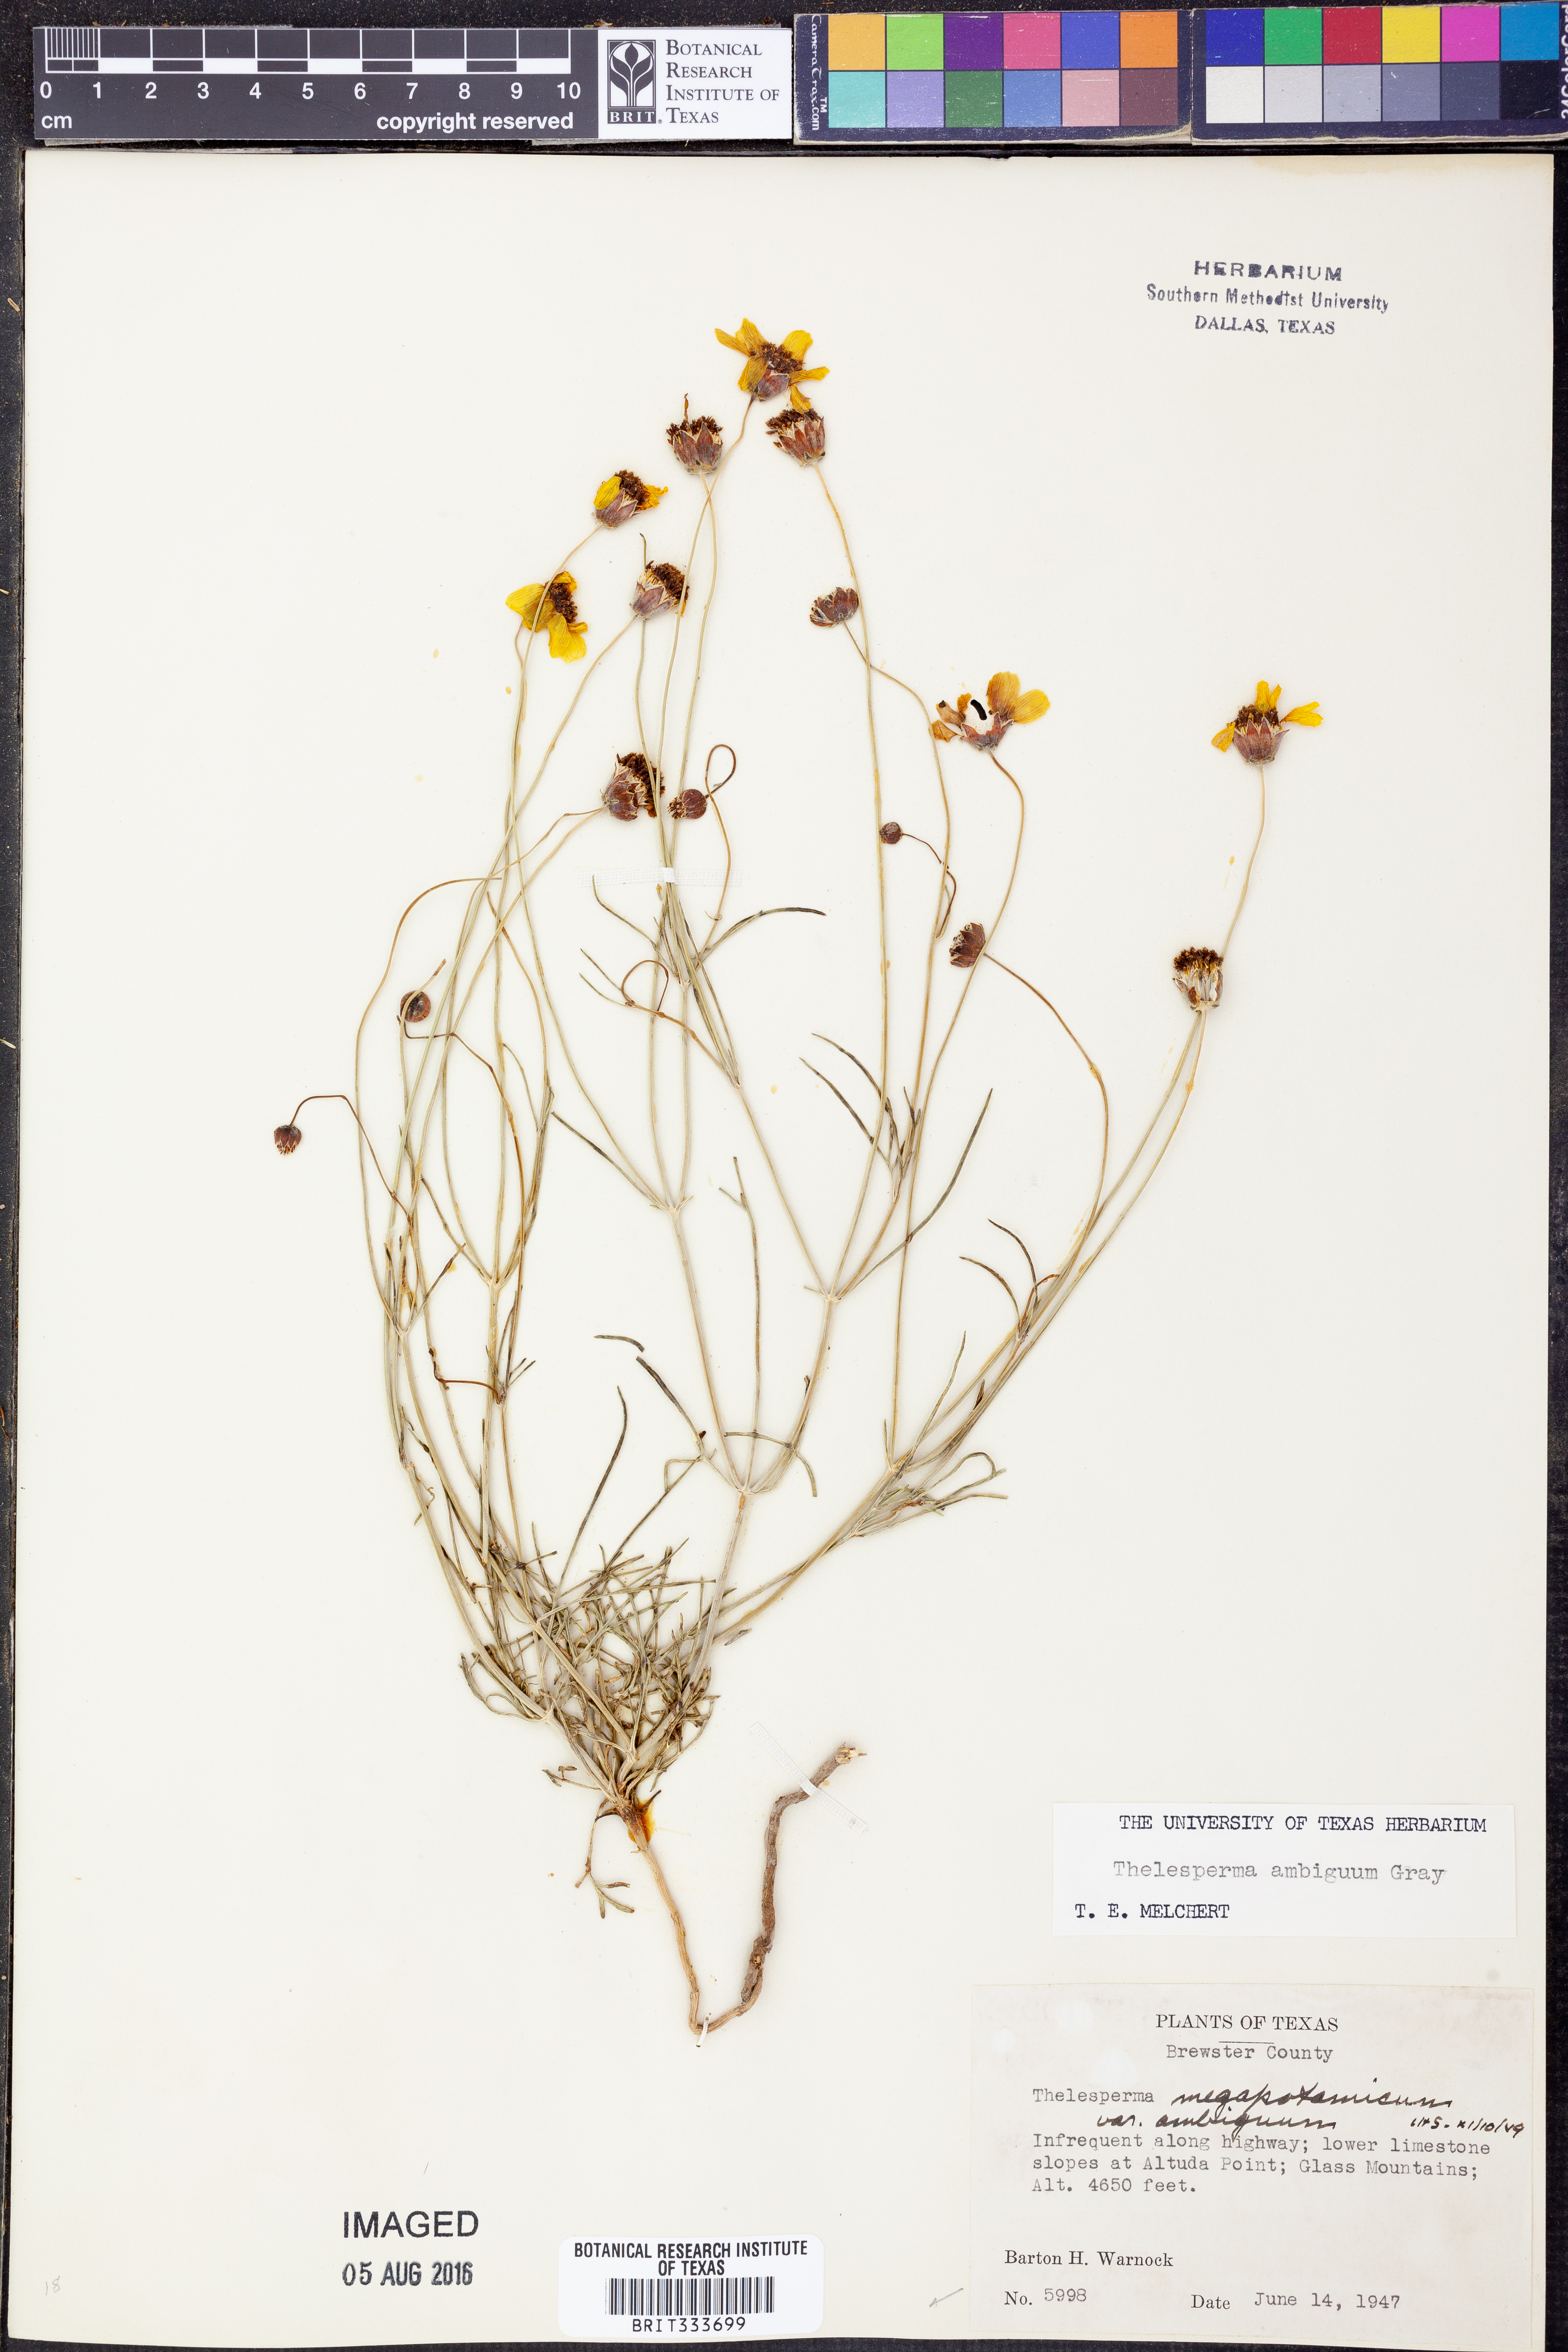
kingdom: Plantae
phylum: Tracheophyta
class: Magnoliopsida
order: Asterales
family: Asteraceae
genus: Thelesperma
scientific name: Thelesperma ambiguum
